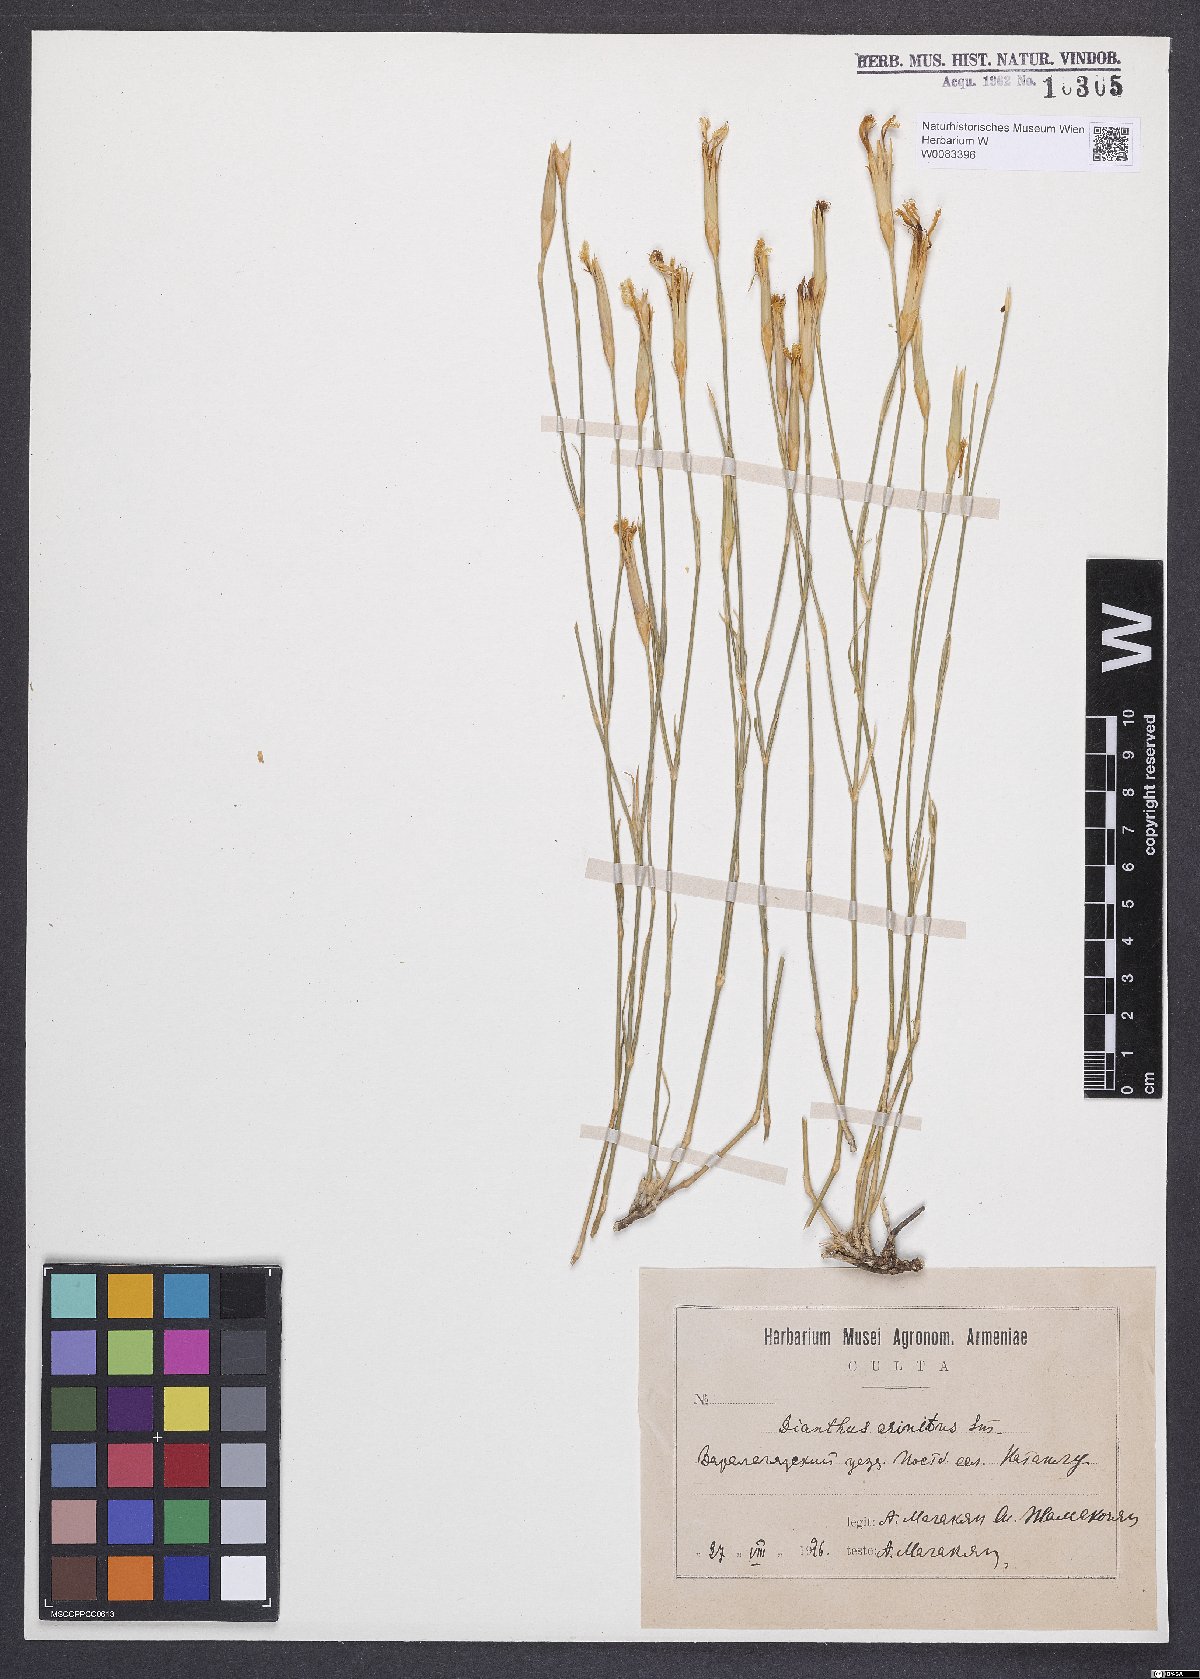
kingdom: Plantae
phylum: Tracheophyta
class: Magnoliopsida
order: Caryophyllales
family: Caryophyllaceae
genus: Dianthus
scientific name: Dianthus crinitus
